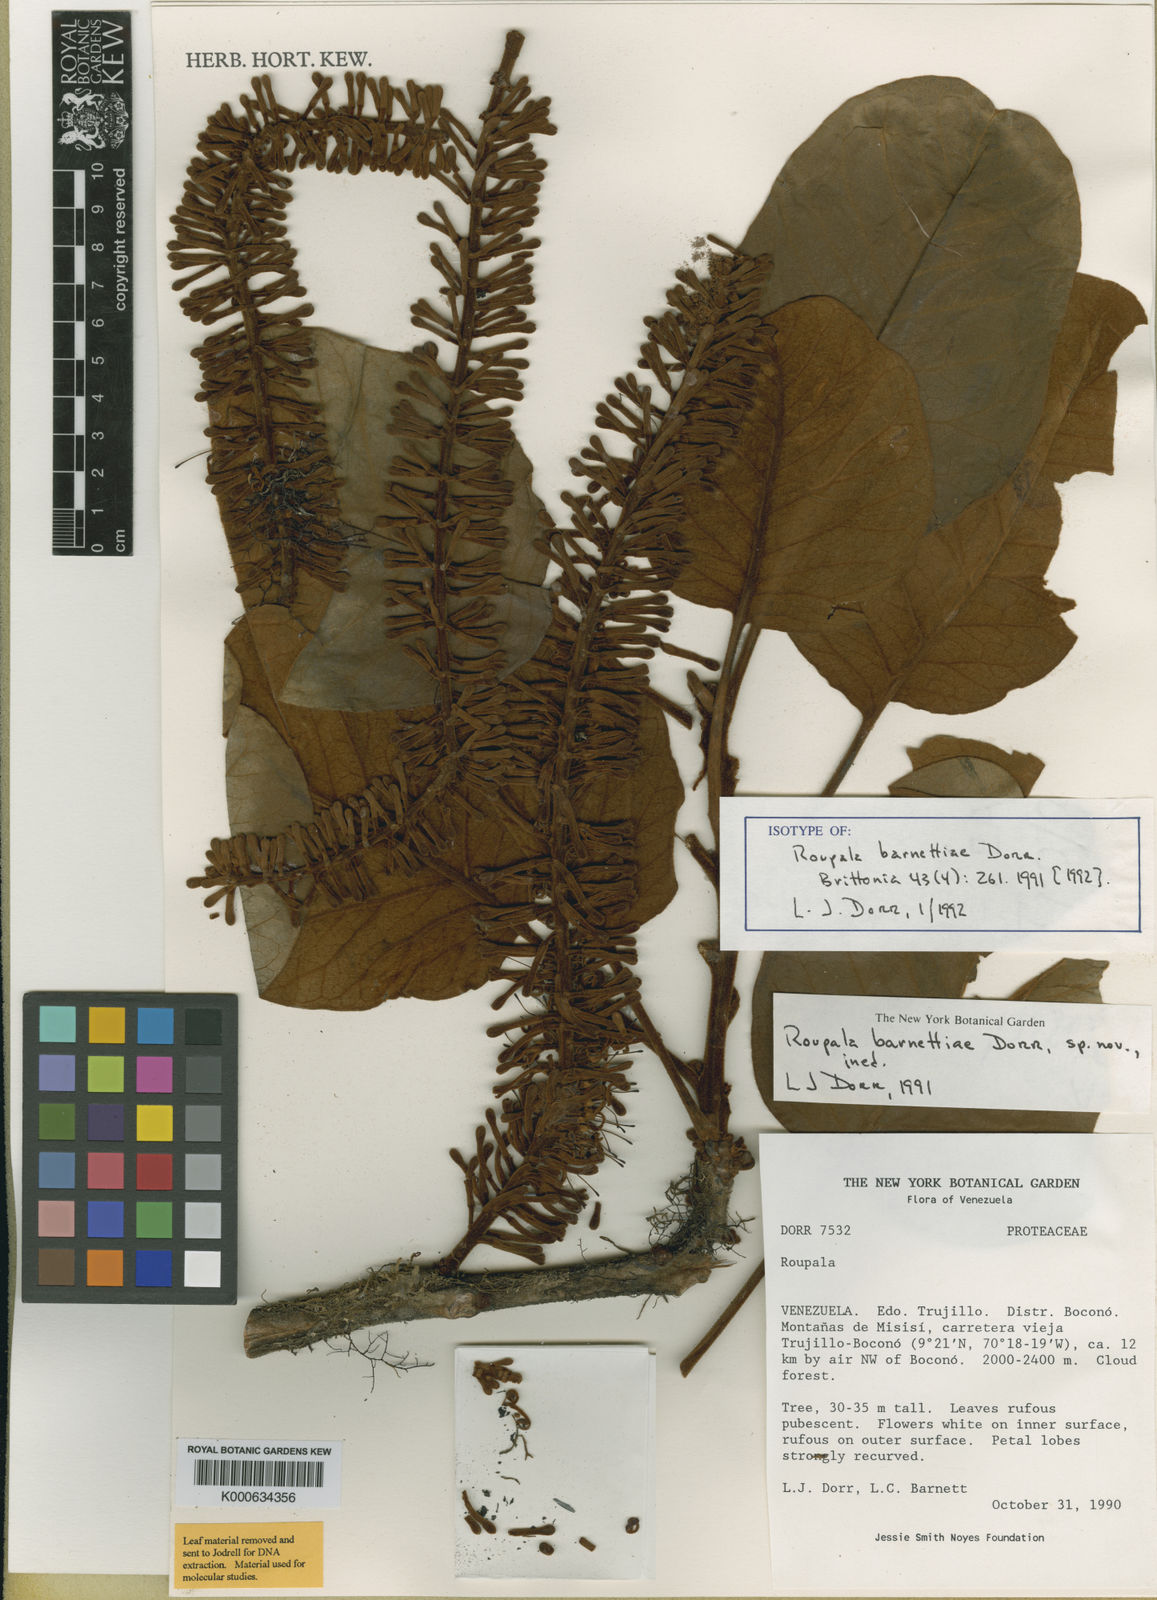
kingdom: Plantae
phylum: Tracheophyta
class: Magnoliopsida
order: Proteales
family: Proteaceae
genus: Roupala
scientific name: Roupala barnettiae
